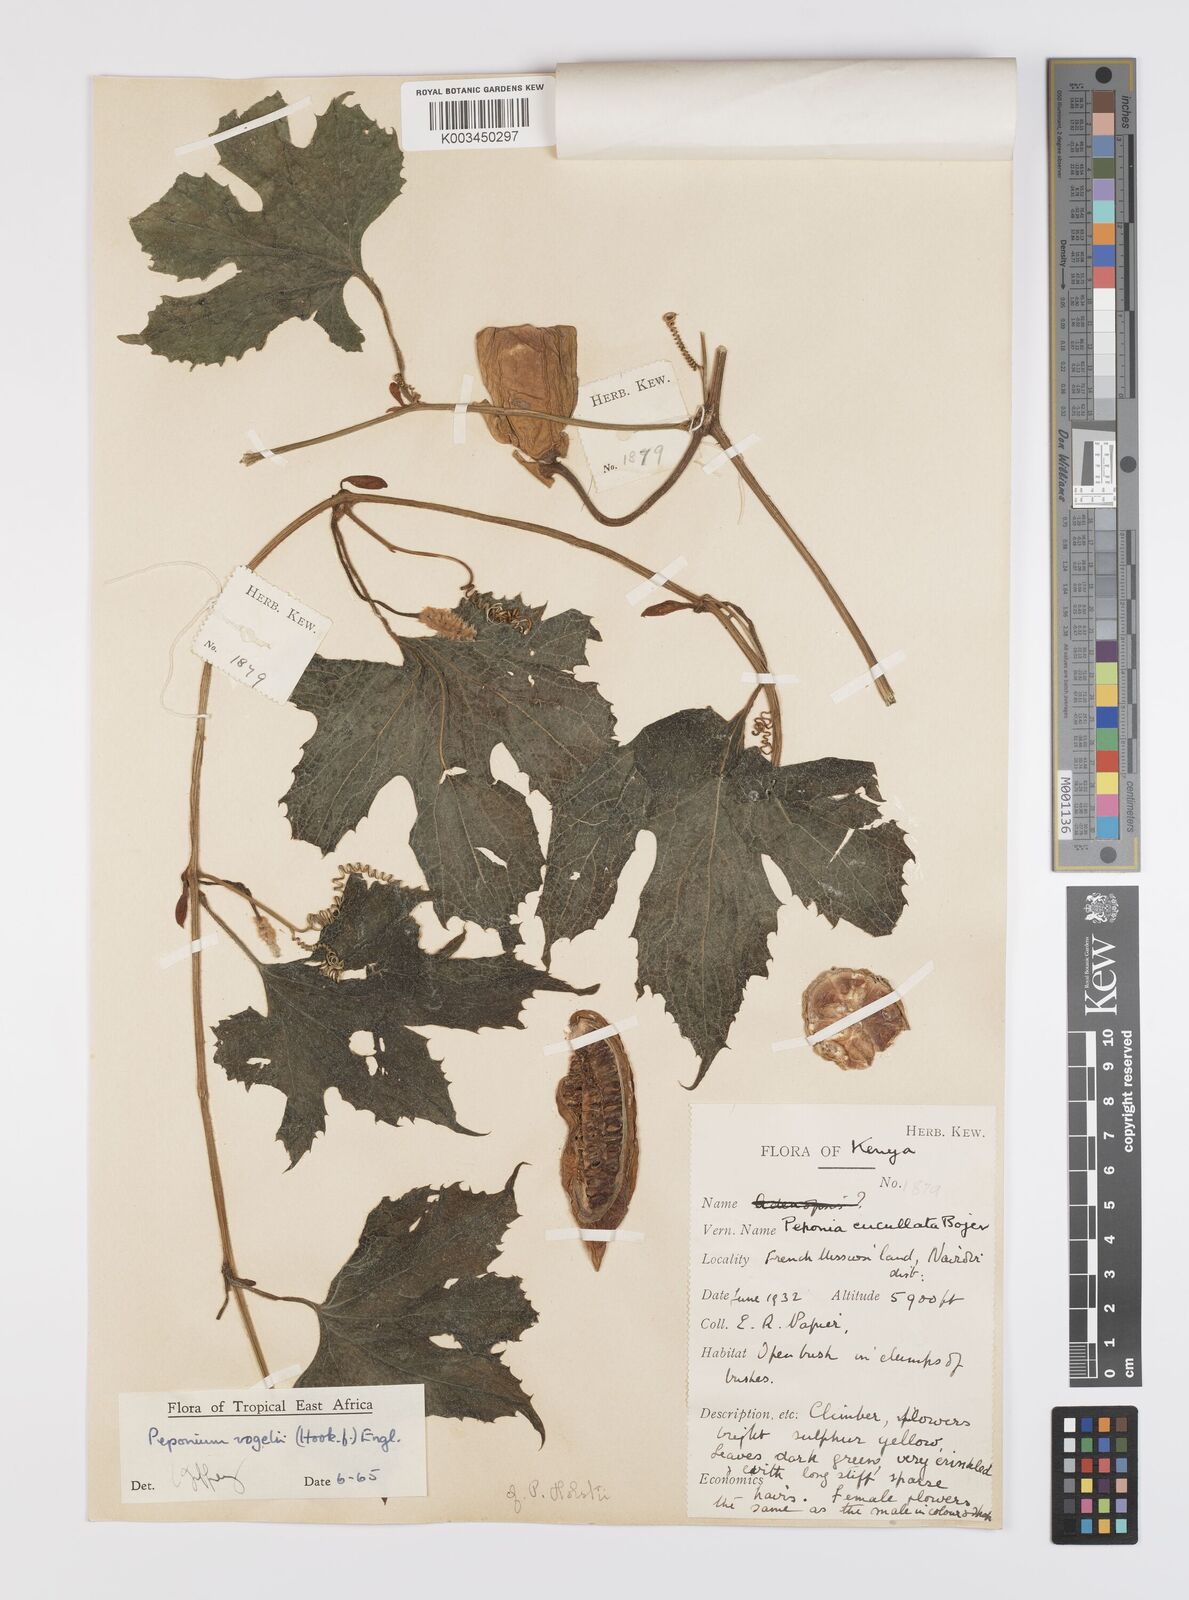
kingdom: Plantae
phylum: Tracheophyta
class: Magnoliopsida
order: Cucurbitales
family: Cucurbitaceae
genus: Peponium
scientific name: Peponium vogelii
